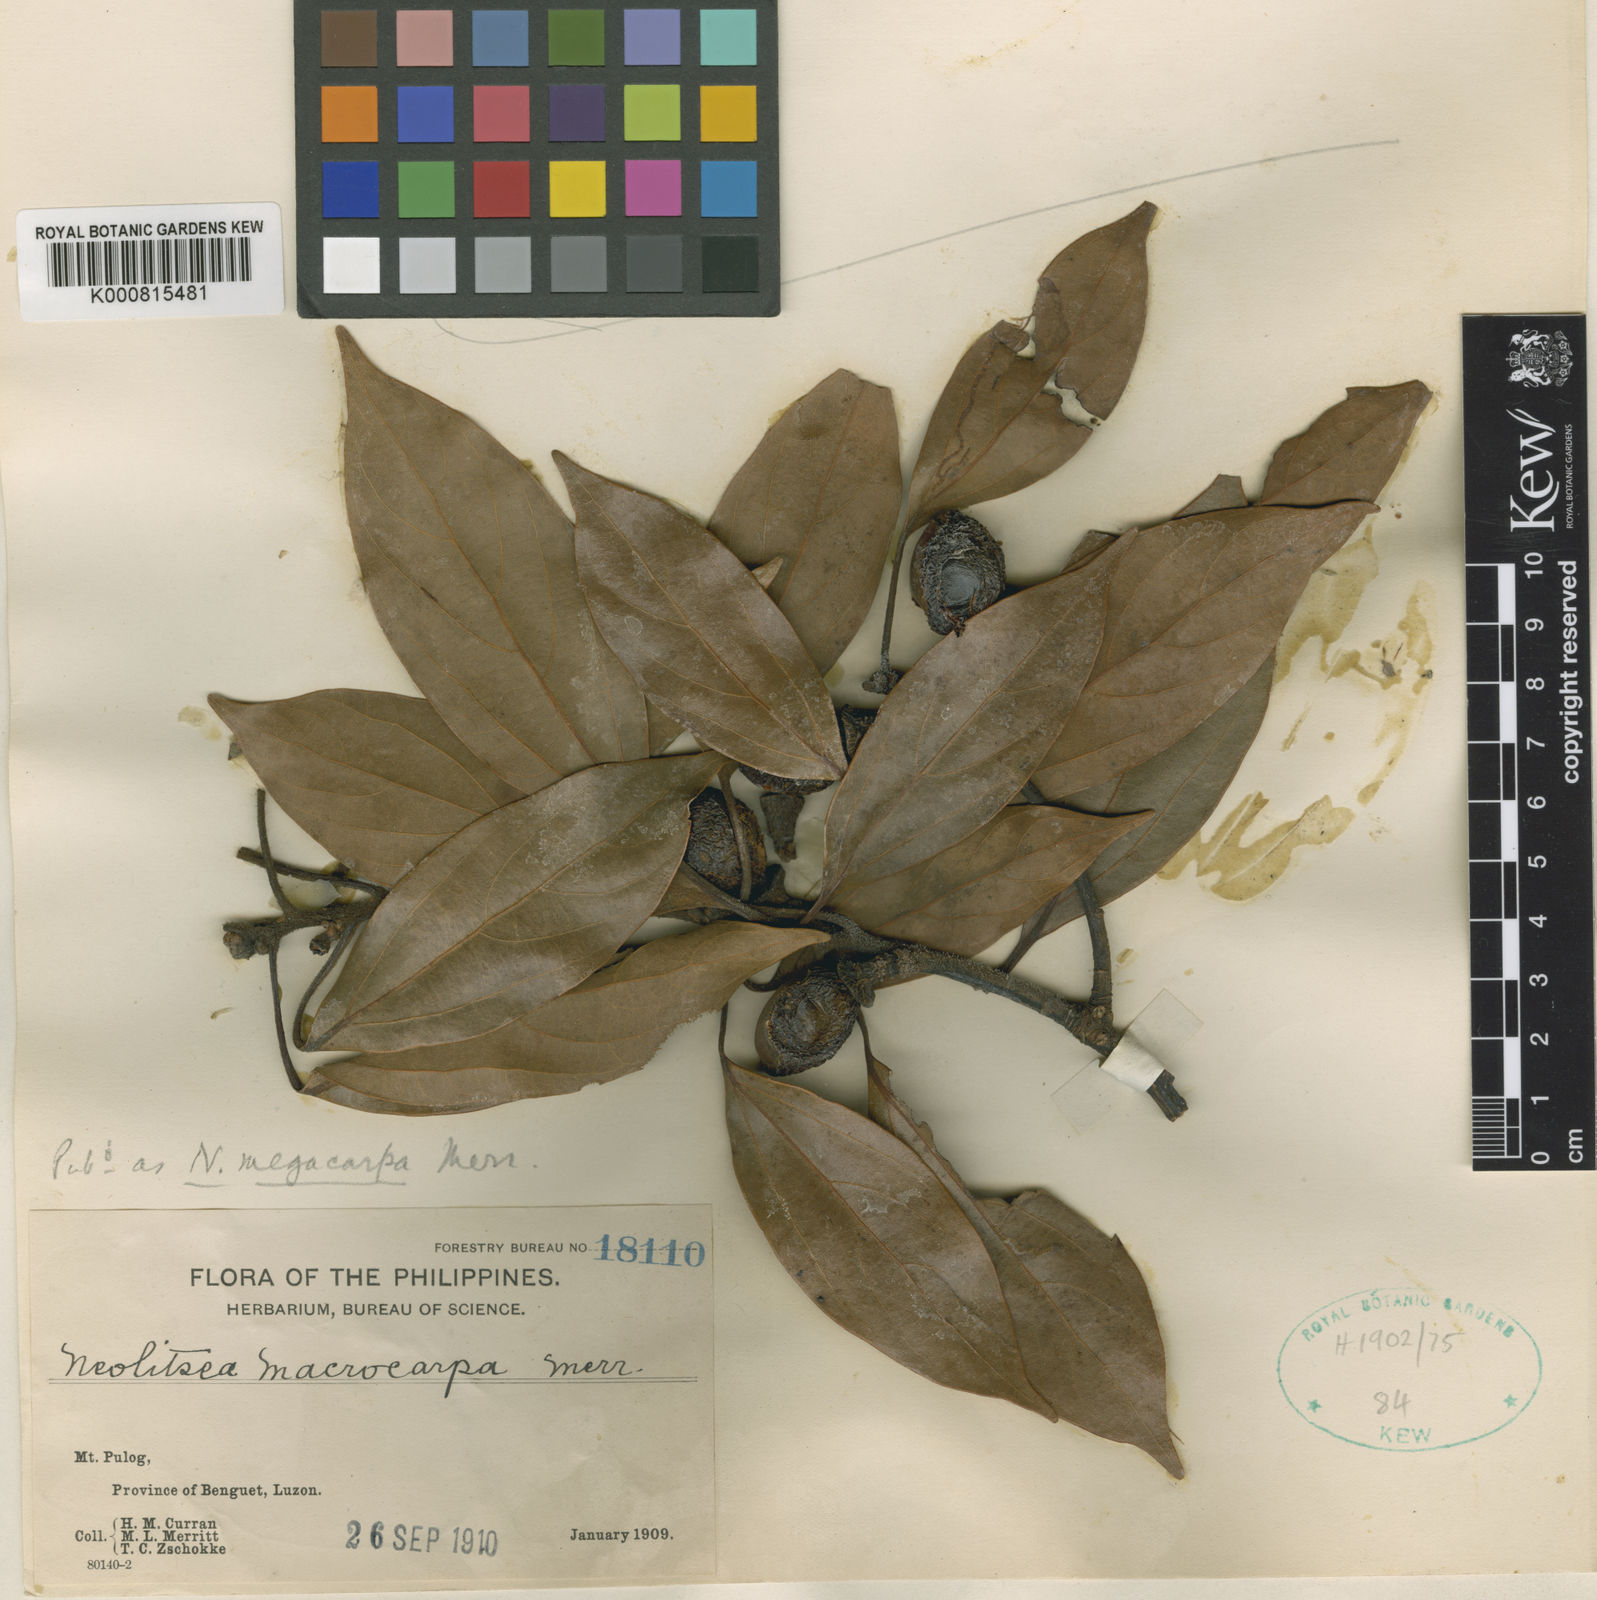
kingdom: Plantae
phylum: Tracheophyta
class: Magnoliopsida
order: Laurales
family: Lauraceae
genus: Neolitsea
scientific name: Neolitsea megacarpa
